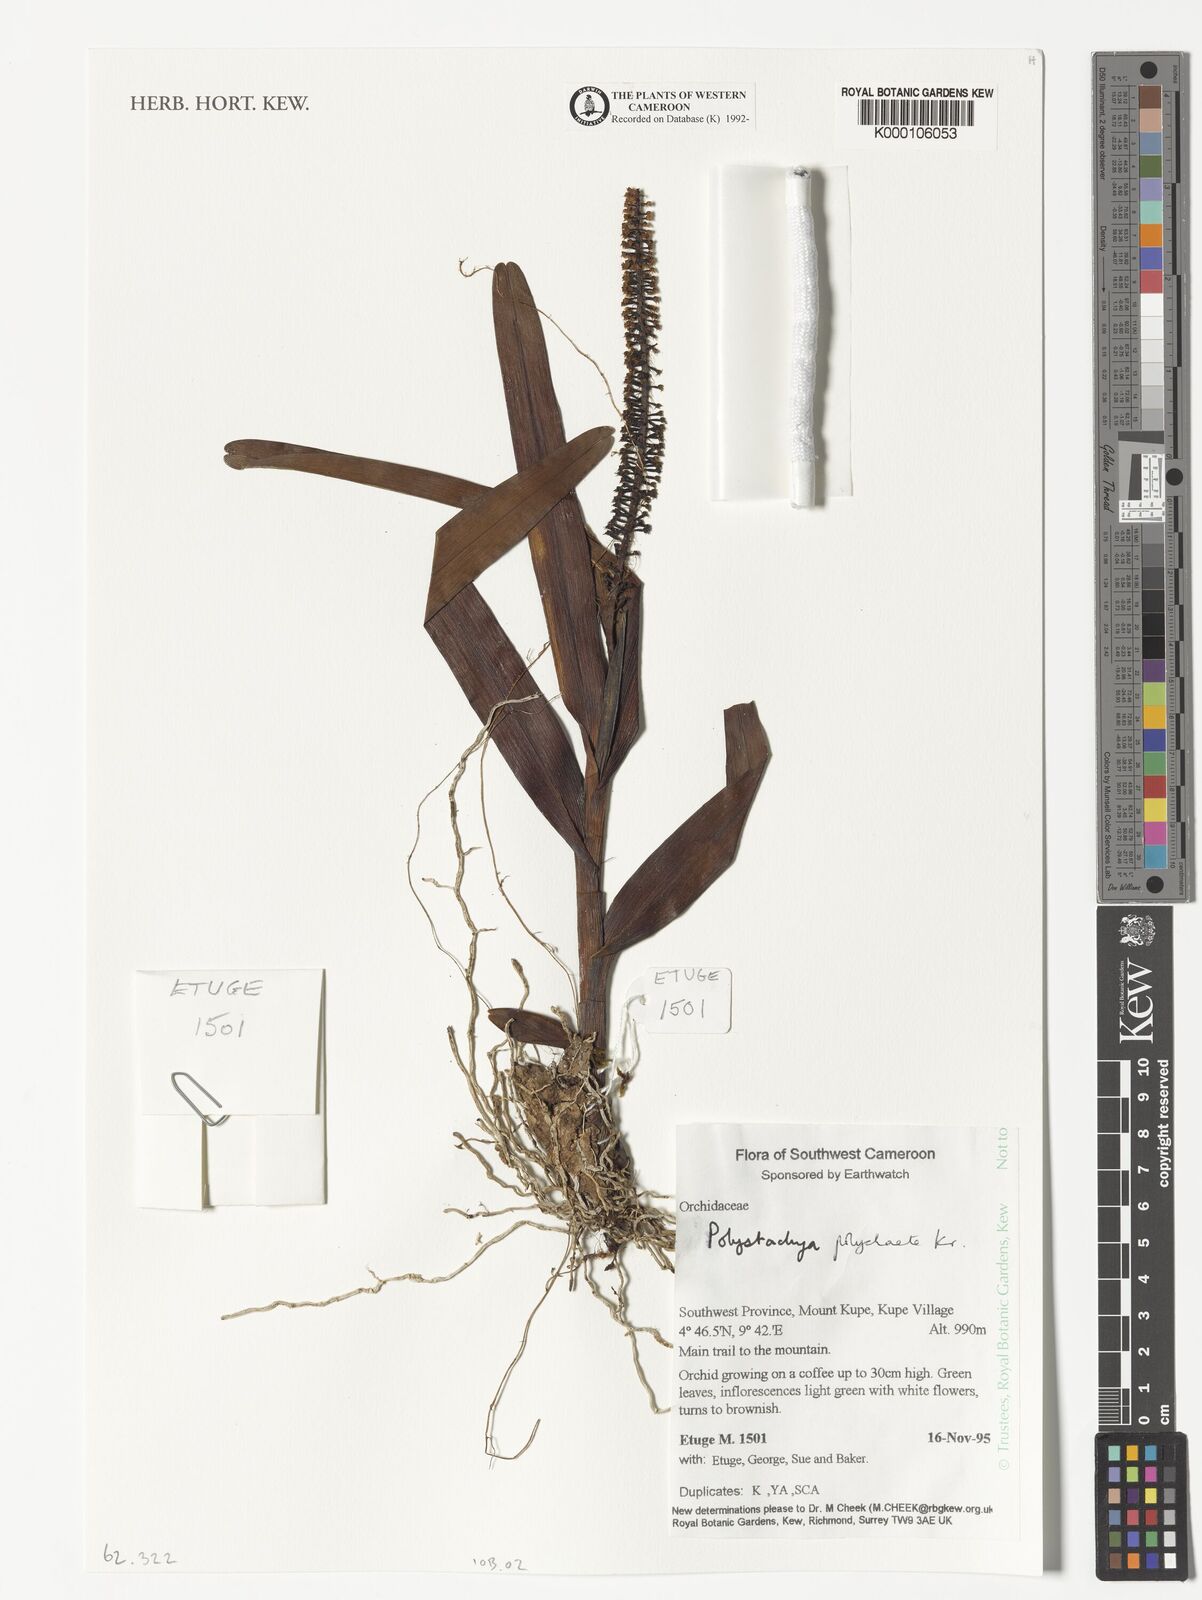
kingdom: Plantae
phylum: Tracheophyta
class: Liliopsida
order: Asparagales
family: Orchidaceae
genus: Polystachya
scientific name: Polystachya polychaete
